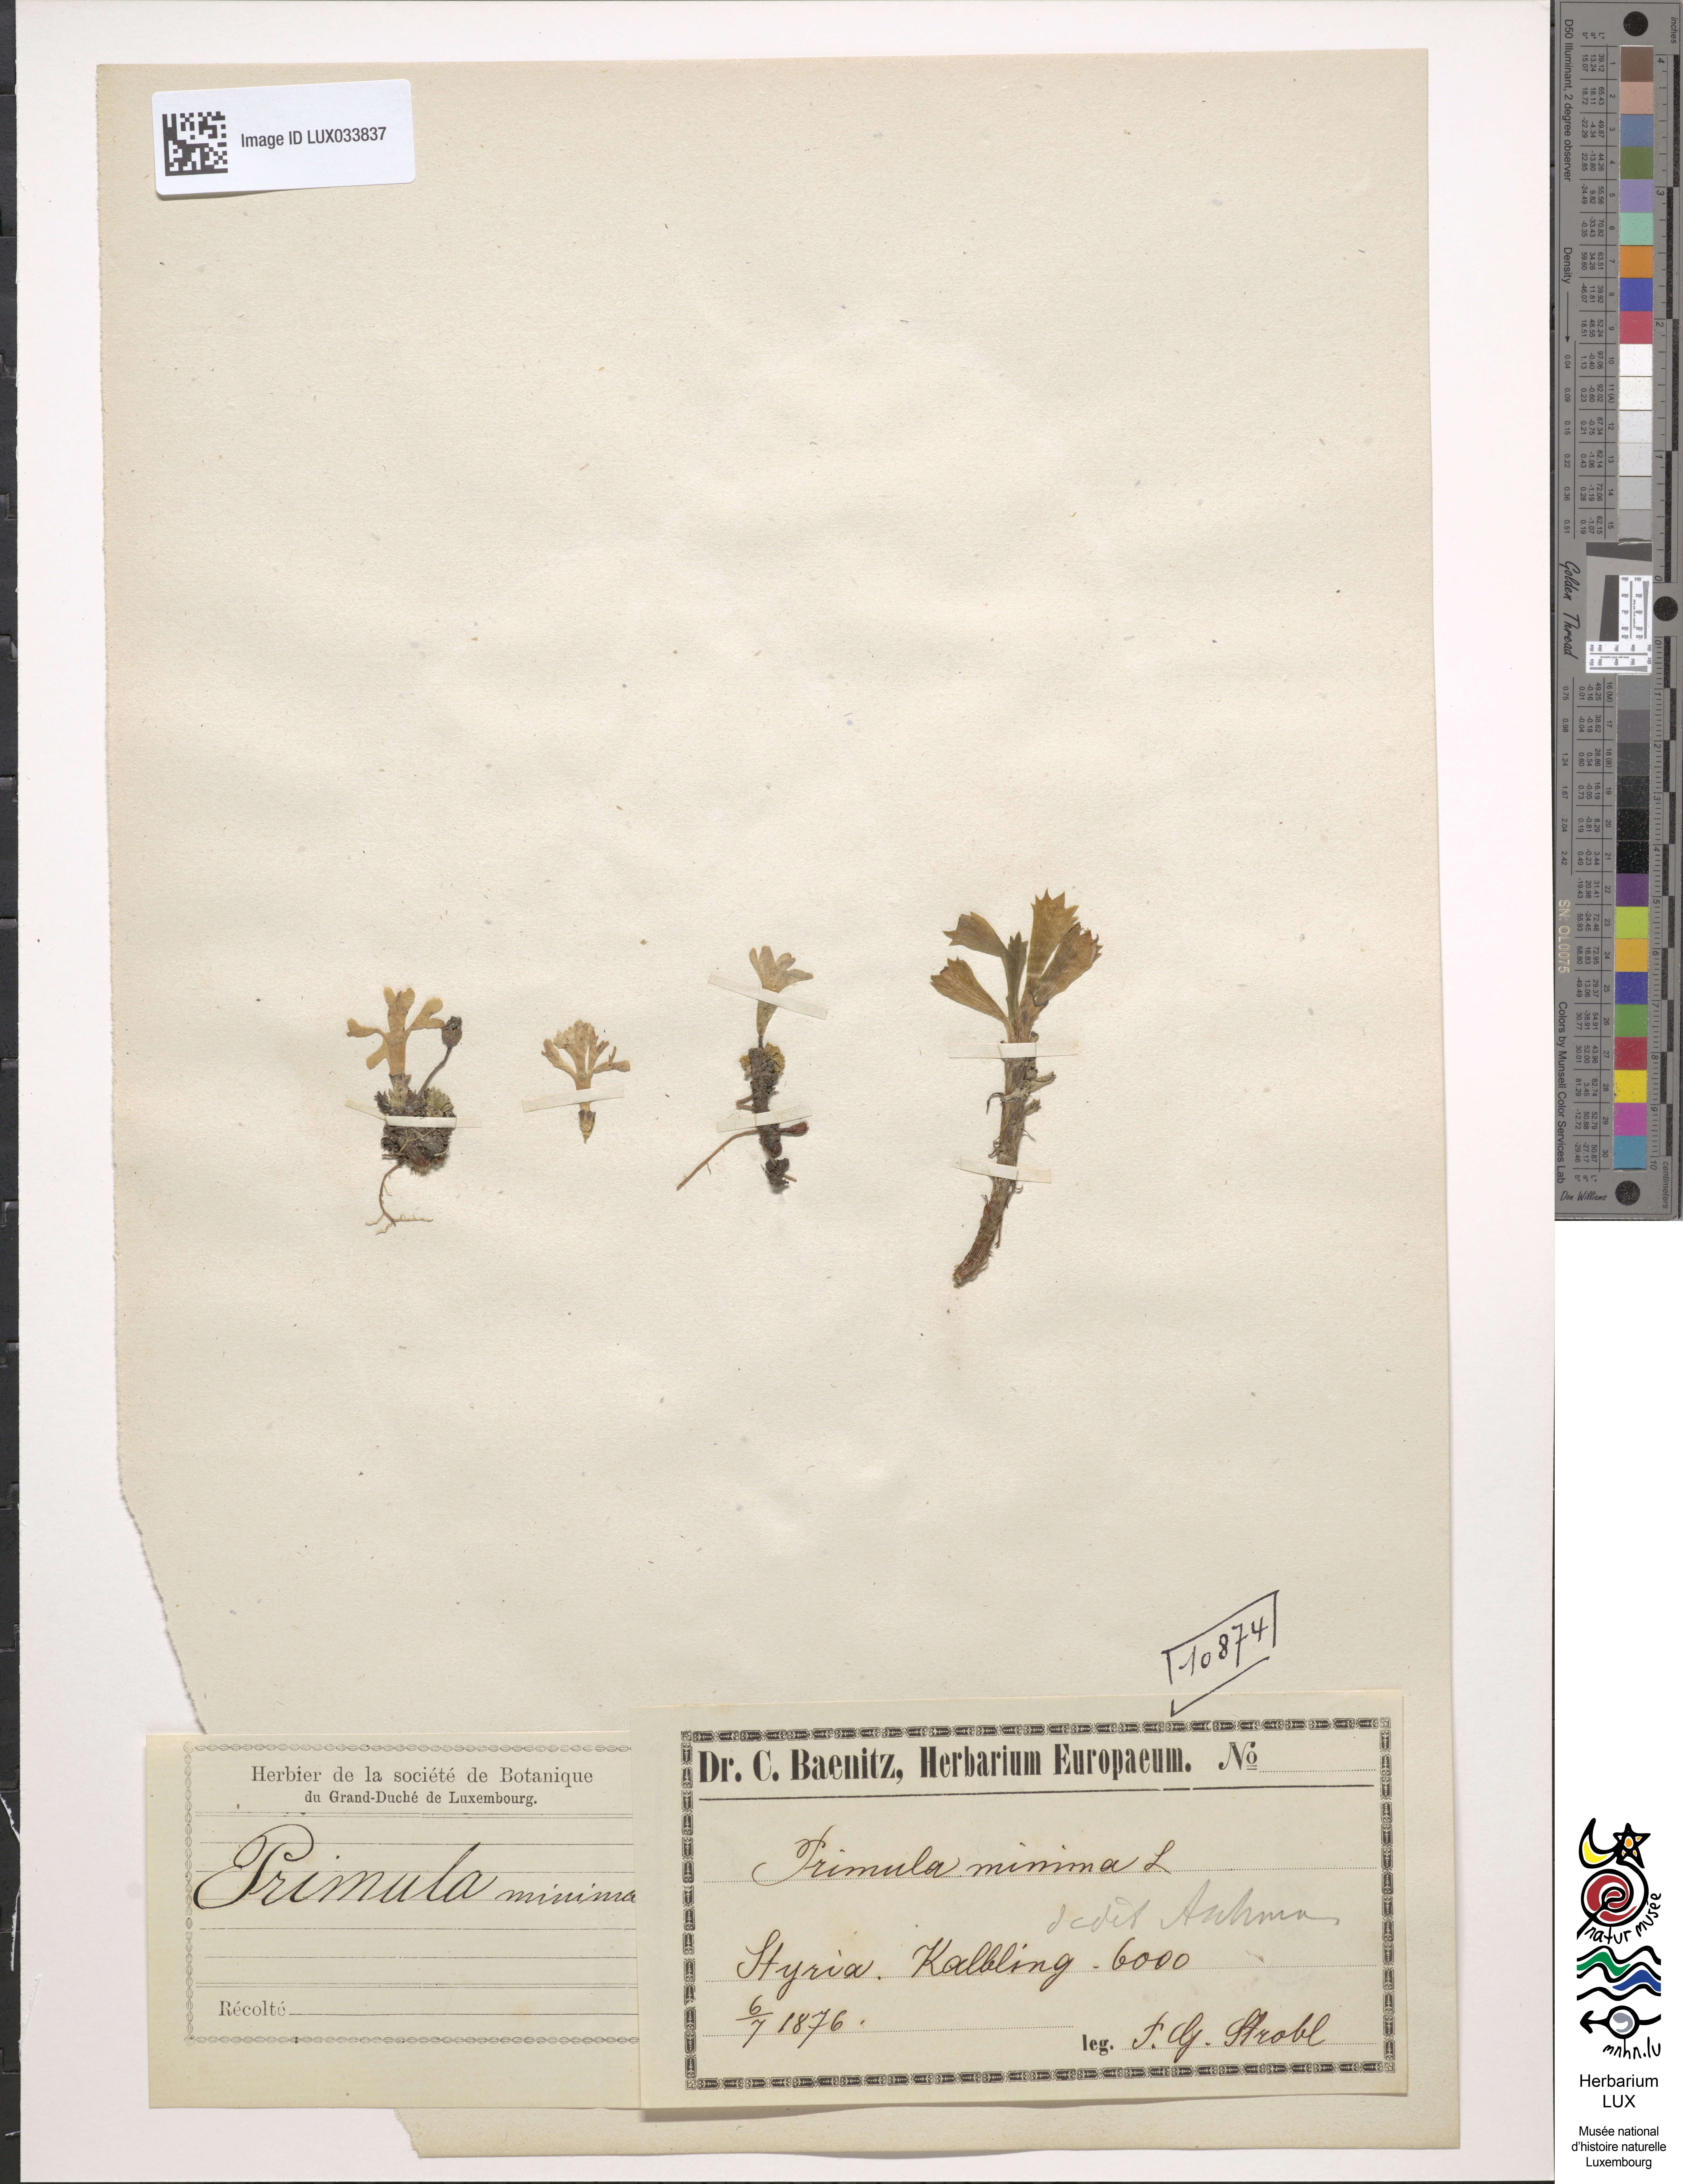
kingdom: Plantae
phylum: Tracheophyta
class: Magnoliopsida
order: Ericales
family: Primulaceae
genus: Primula
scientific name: Primula minima
